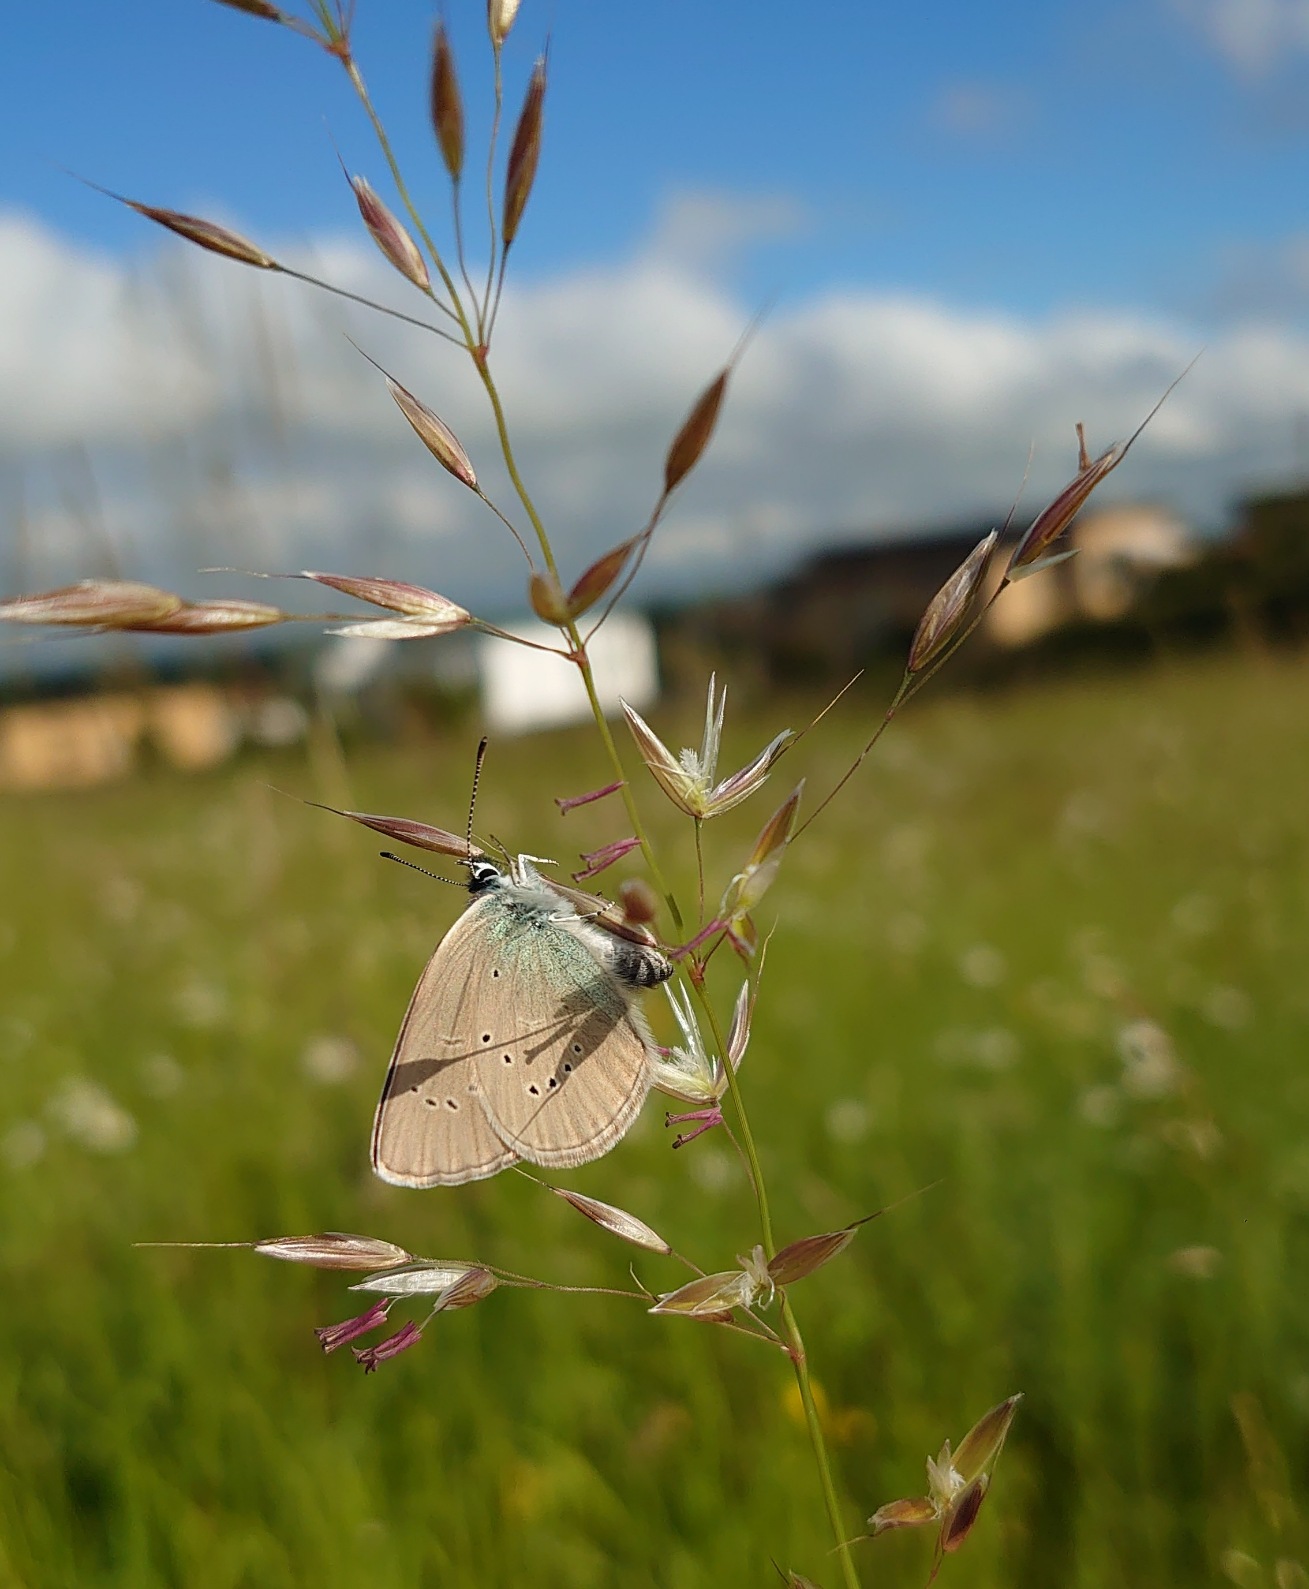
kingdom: Animalia
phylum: Arthropoda
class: Insecta
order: Lepidoptera
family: Lycaenidae
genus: Cyaniris
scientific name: Cyaniris semiargus
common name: Engblåfugl
